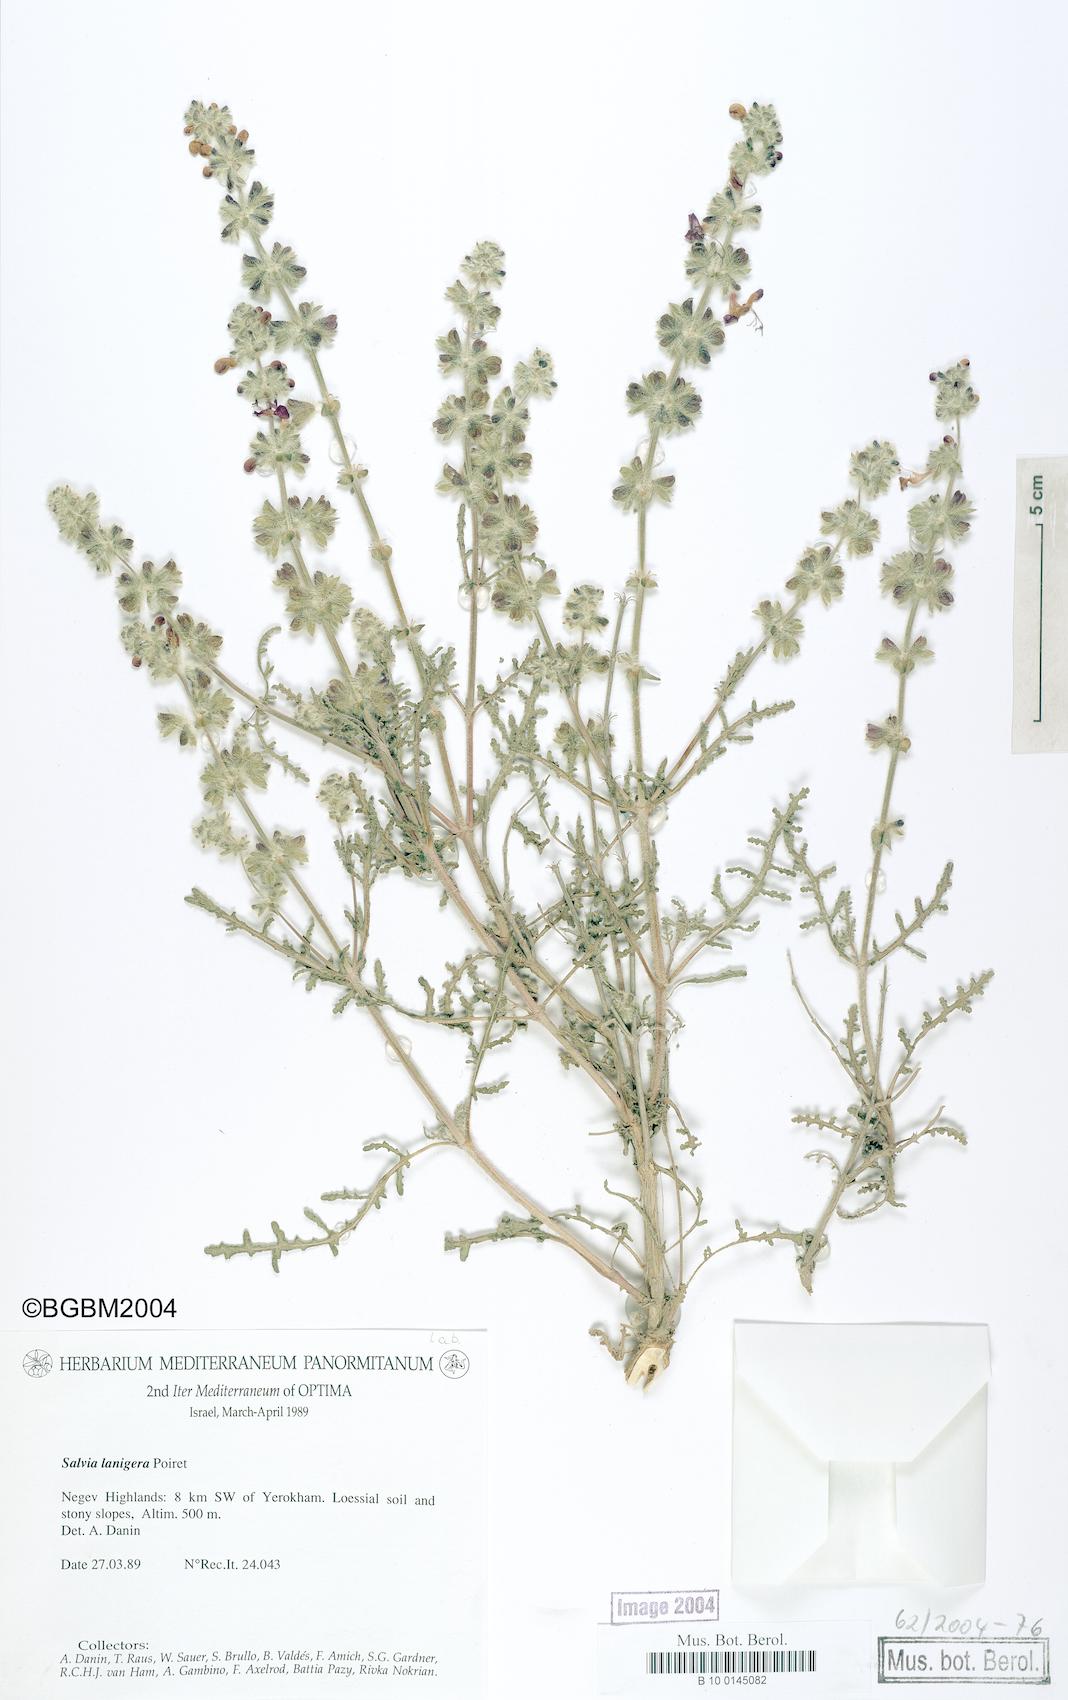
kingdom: Plantae
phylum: Tracheophyta
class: Magnoliopsida
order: Lamiales
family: Lamiaceae
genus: Salvia
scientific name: Salvia lanigera
